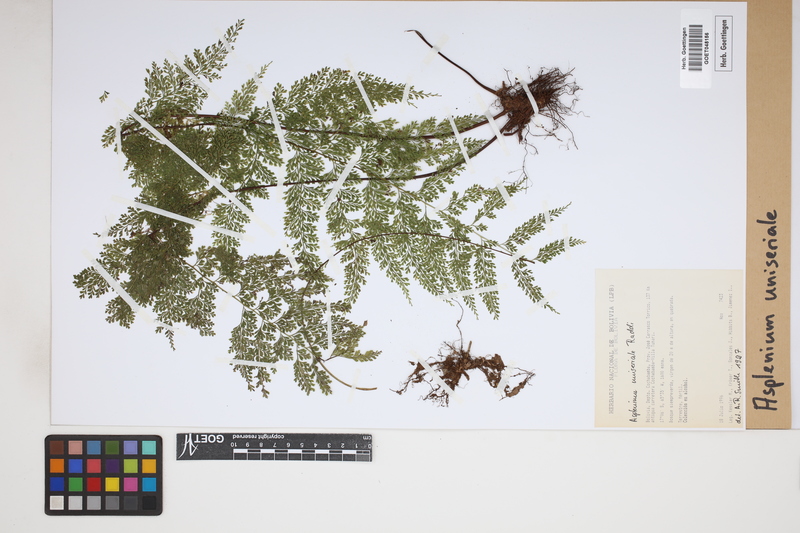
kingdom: Plantae
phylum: Tracheophyta
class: Polypodiopsida
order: Polypodiales
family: Aspleniaceae
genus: Asplenium
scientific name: Asplenium uniseriale
